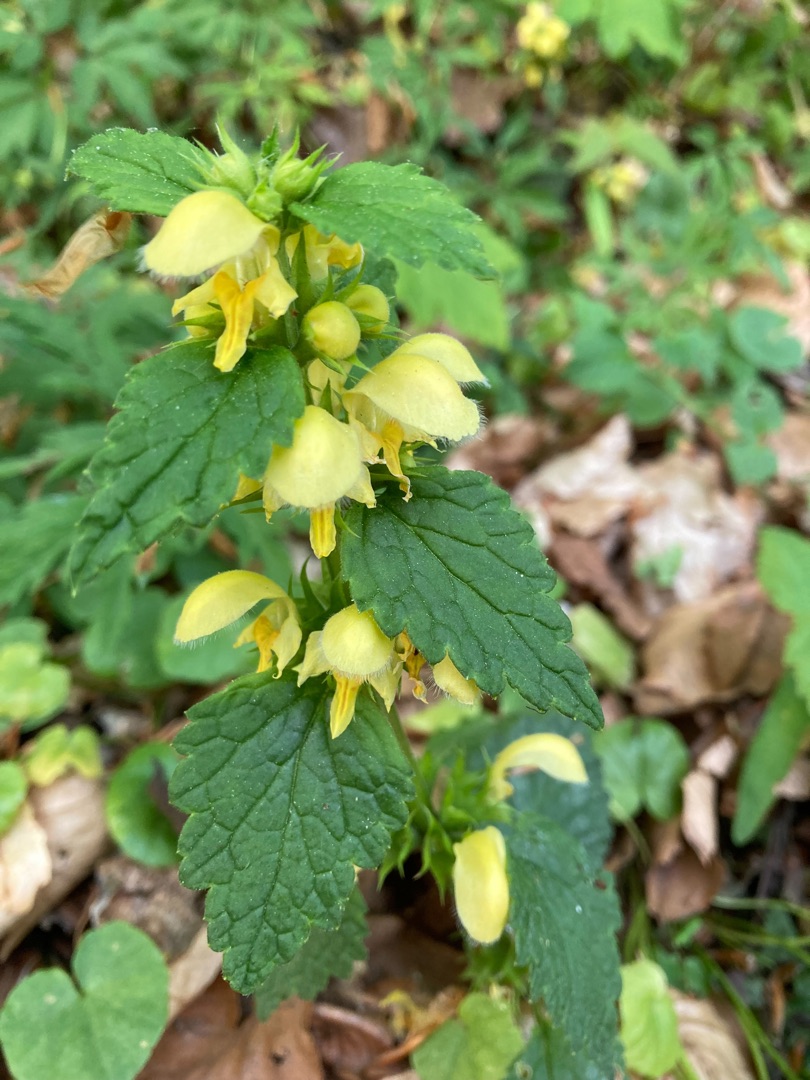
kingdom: Plantae
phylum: Tracheophyta
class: Magnoliopsida
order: Lamiales
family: Lamiaceae
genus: Lamium
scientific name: Lamium galeobdolon
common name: Guldnælde
